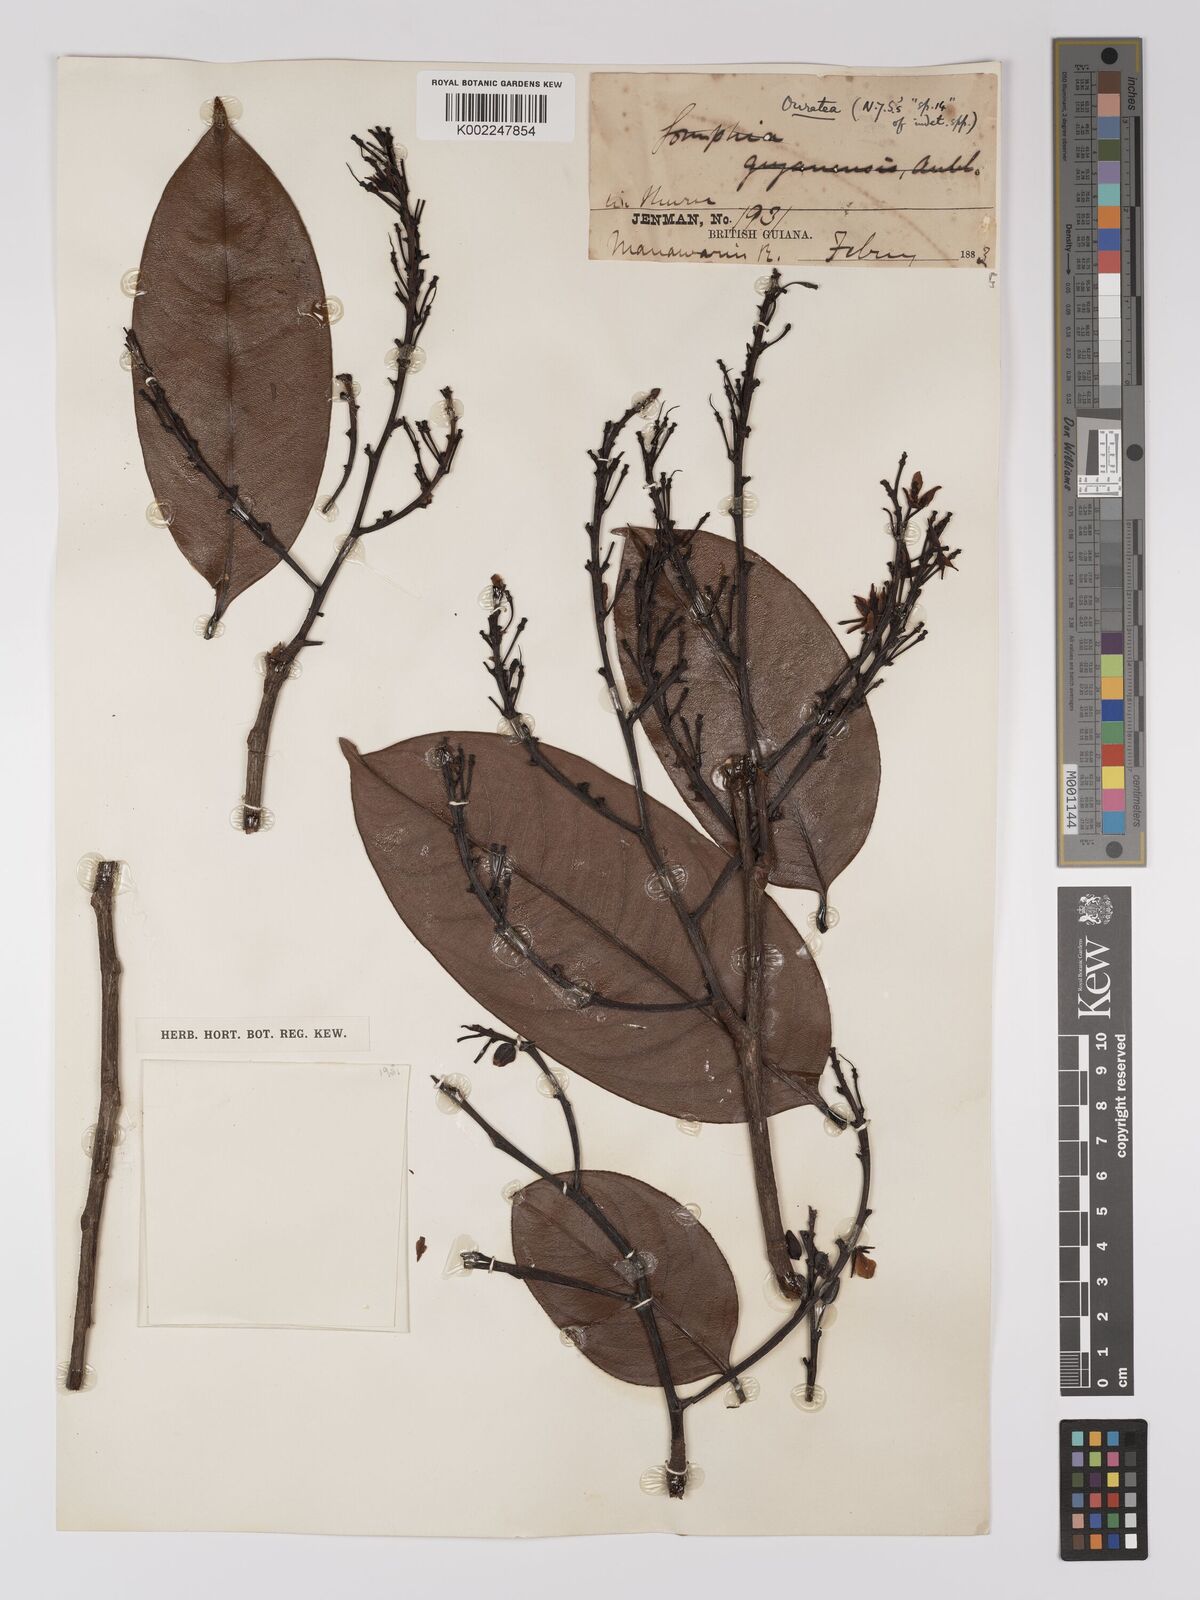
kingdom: Plantae
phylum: Tracheophyta
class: Magnoliopsida
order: Malpighiales
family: Ochnaceae
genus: Ouratea
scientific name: Ouratea
